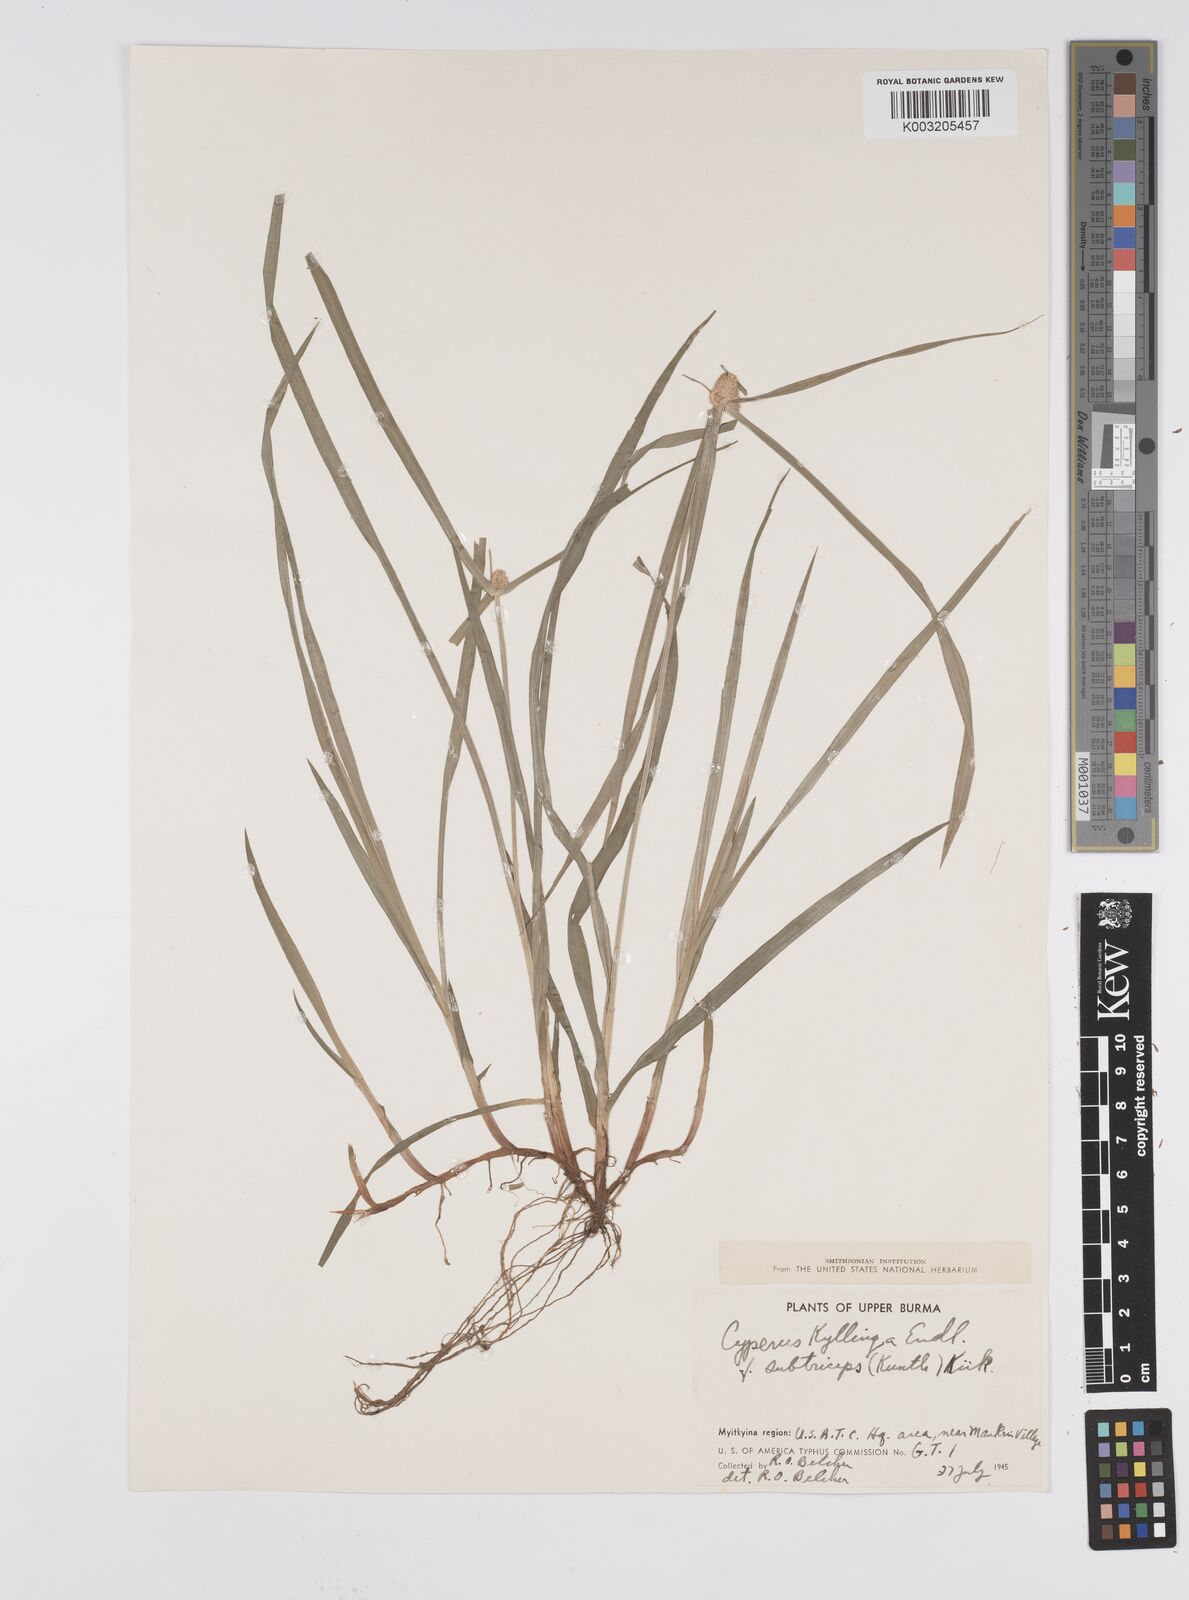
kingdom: Plantae
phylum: Tracheophyta
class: Liliopsida
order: Poales
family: Cyperaceae
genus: Cyperus
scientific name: Cyperus nemoralis
